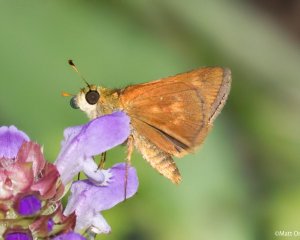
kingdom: Animalia
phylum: Arthropoda
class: Insecta
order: Lepidoptera
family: Hesperiidae
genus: Wallengrenia
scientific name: Wallengrenia otho
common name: Southern Broken-Dash
